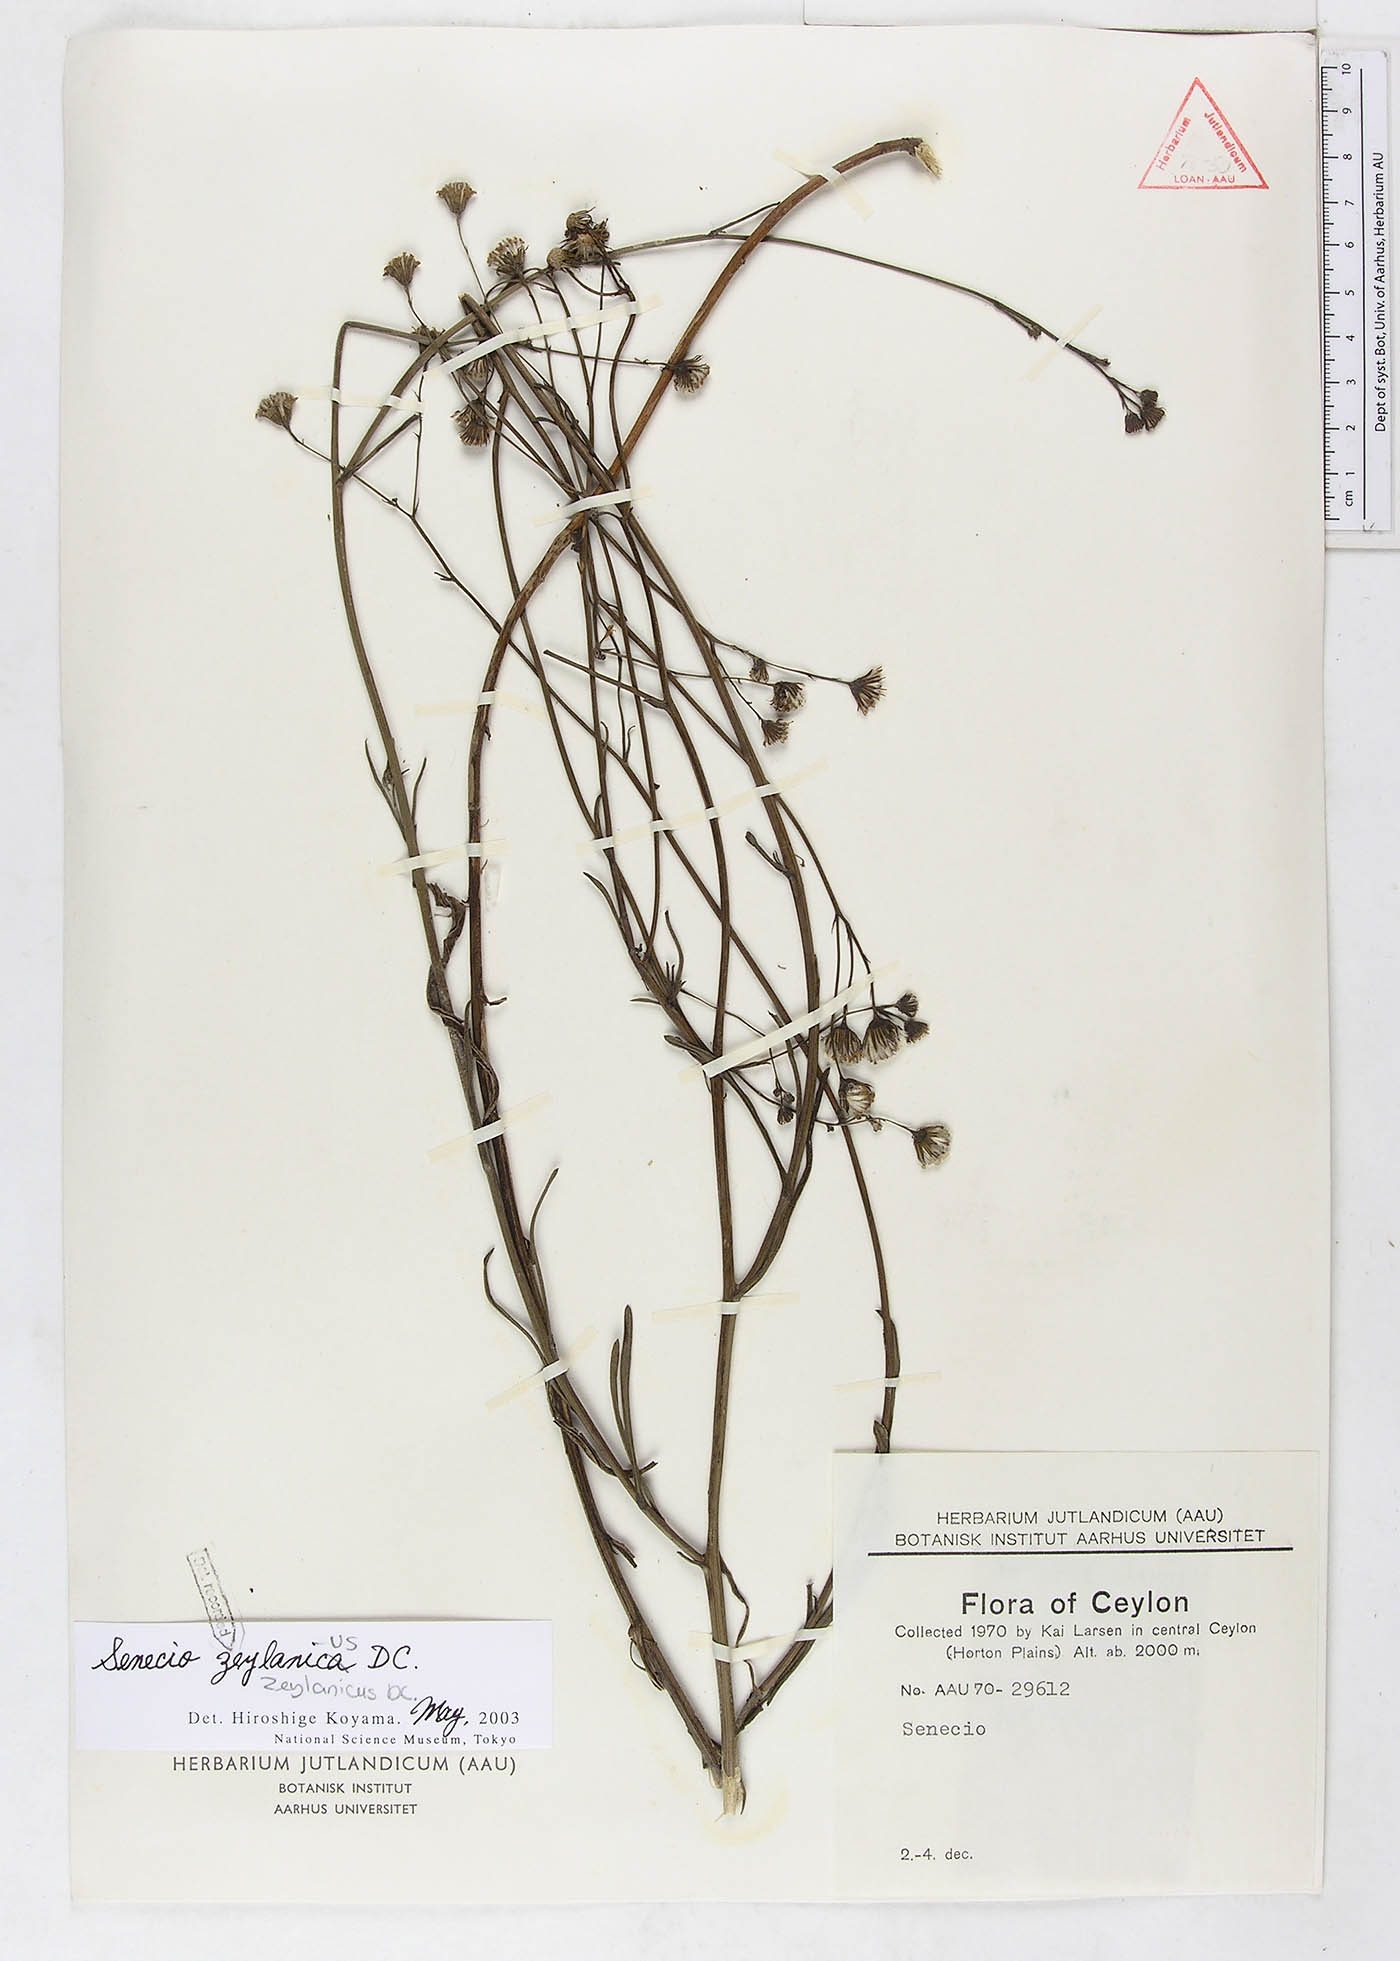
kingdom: Plantae
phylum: Tracheophyta
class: Magnoliopsida
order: Asterales
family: Asteraceae
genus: Senecio
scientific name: Senecio zeylanicus
